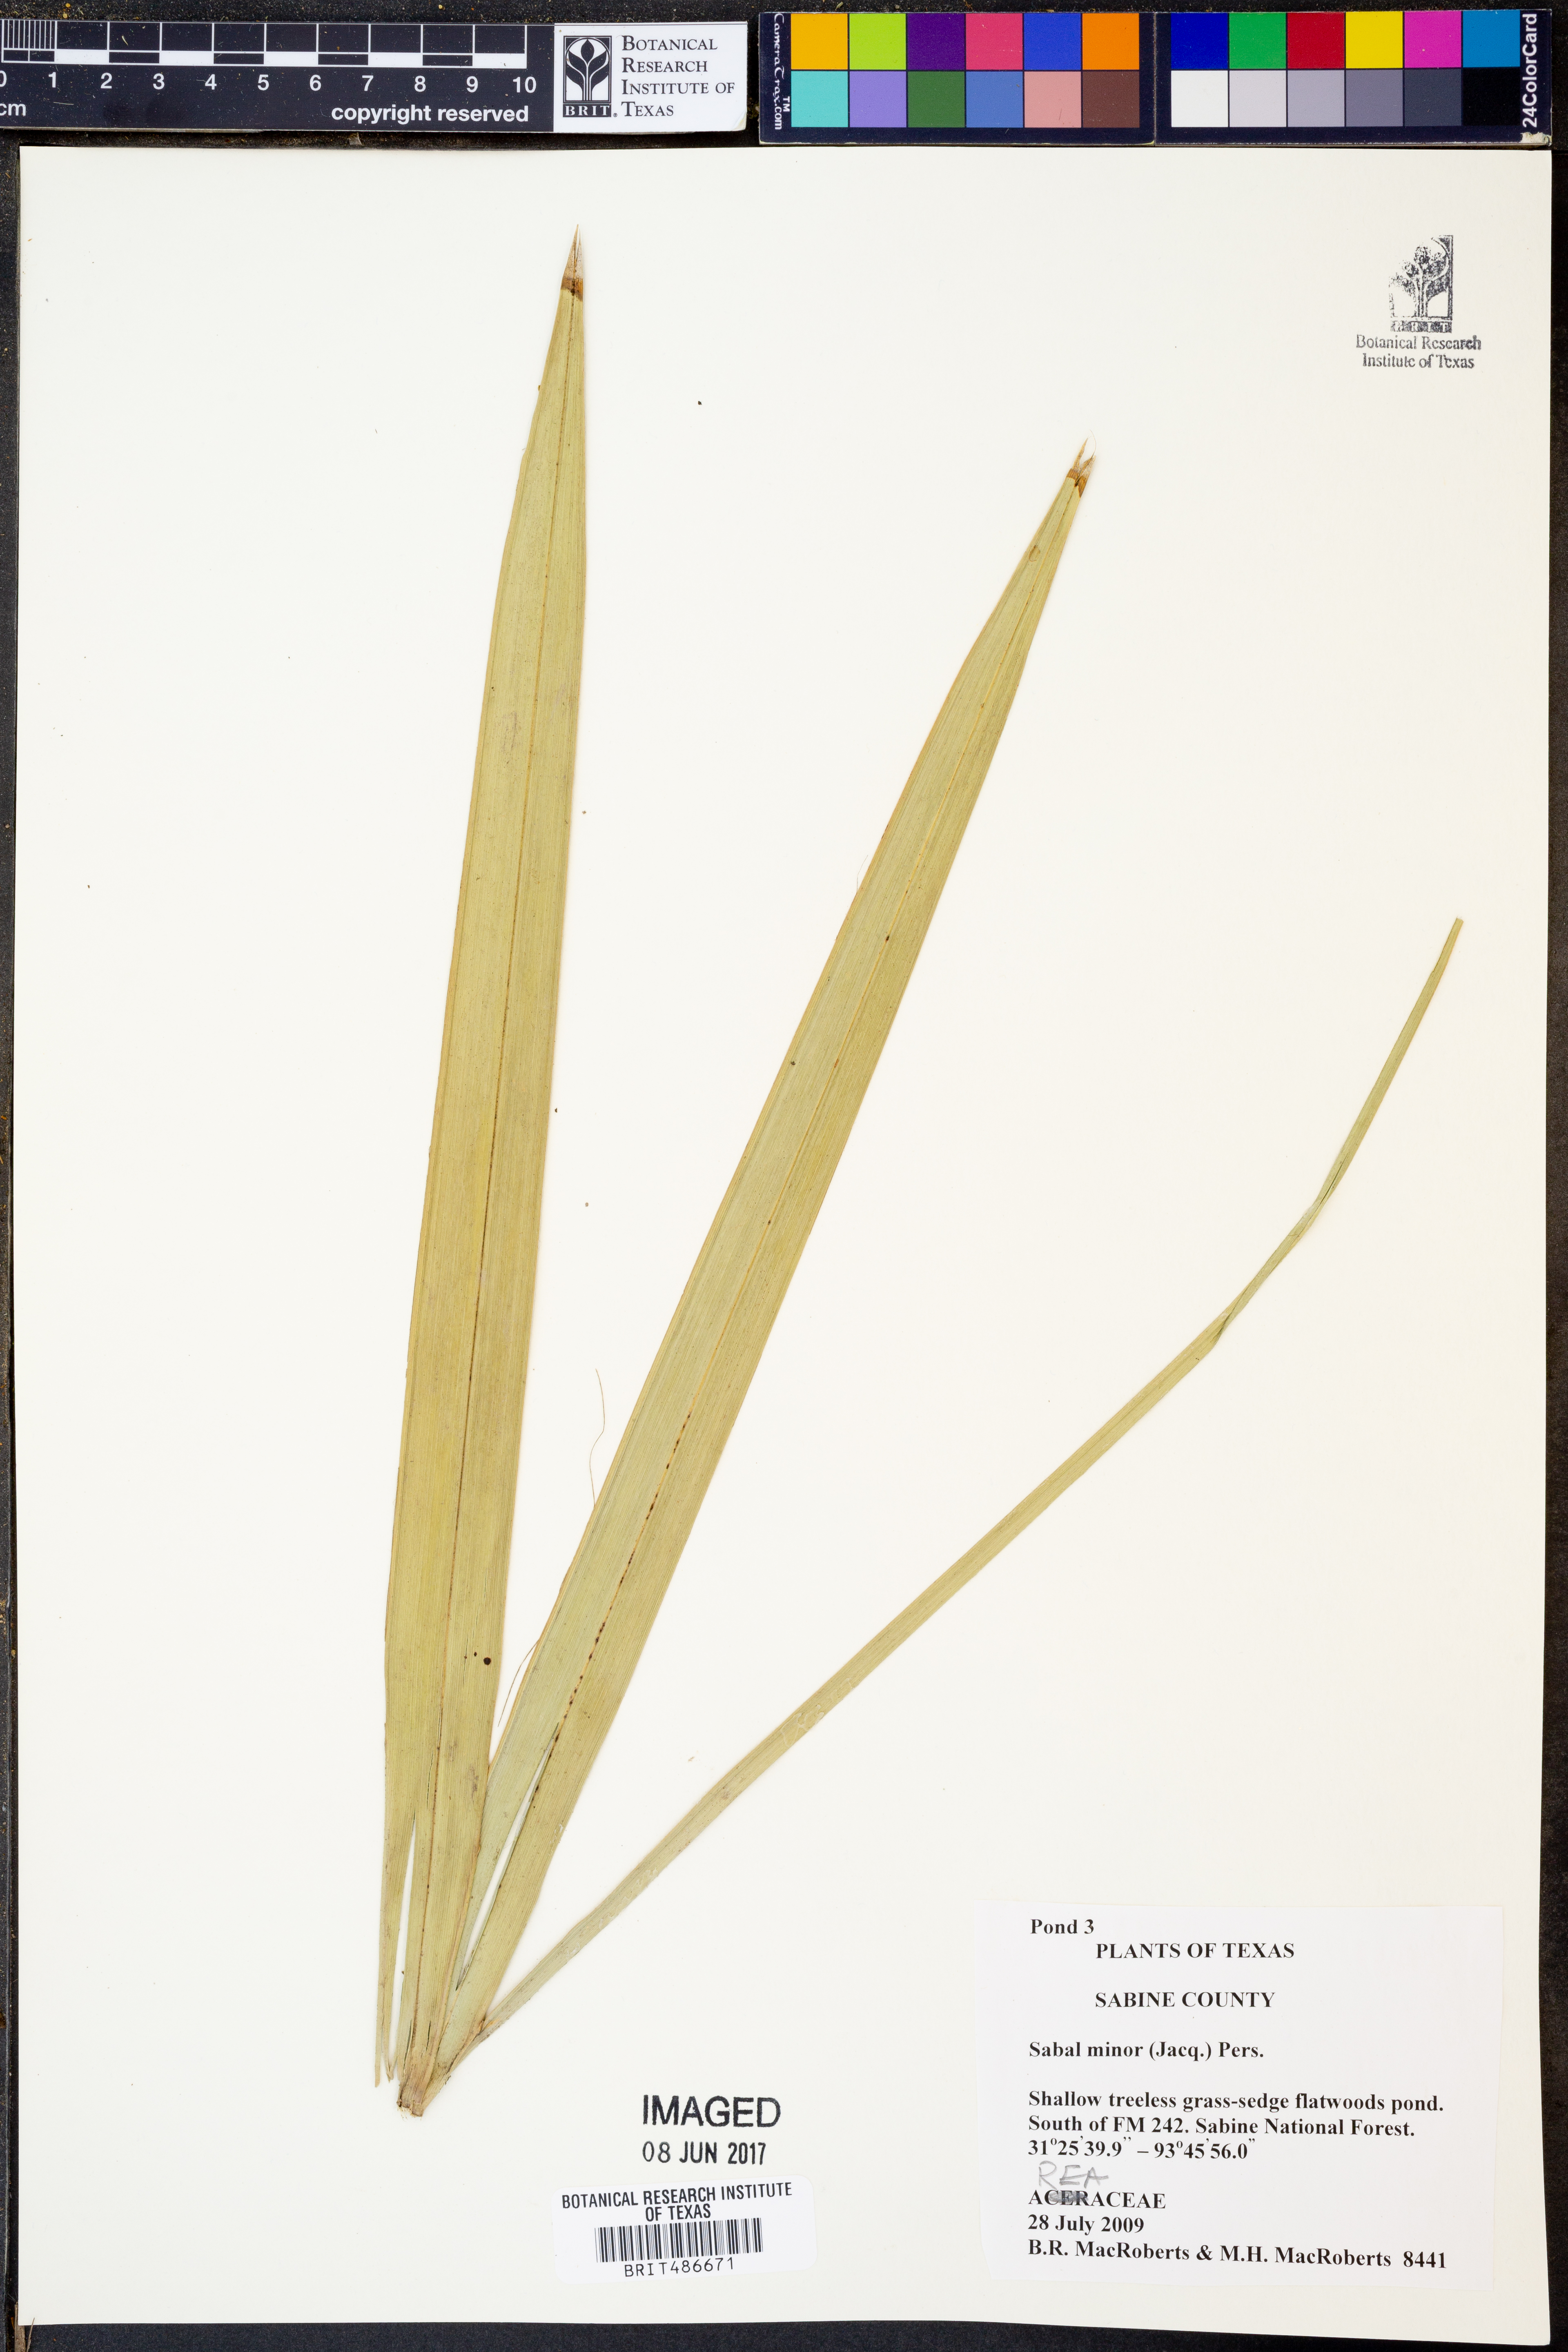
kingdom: Plantae
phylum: Tracheophyta
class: Liliopsida
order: Arecales
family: Arecaceae
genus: Sabal
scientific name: Sabal minor
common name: Dwarf palmetto
